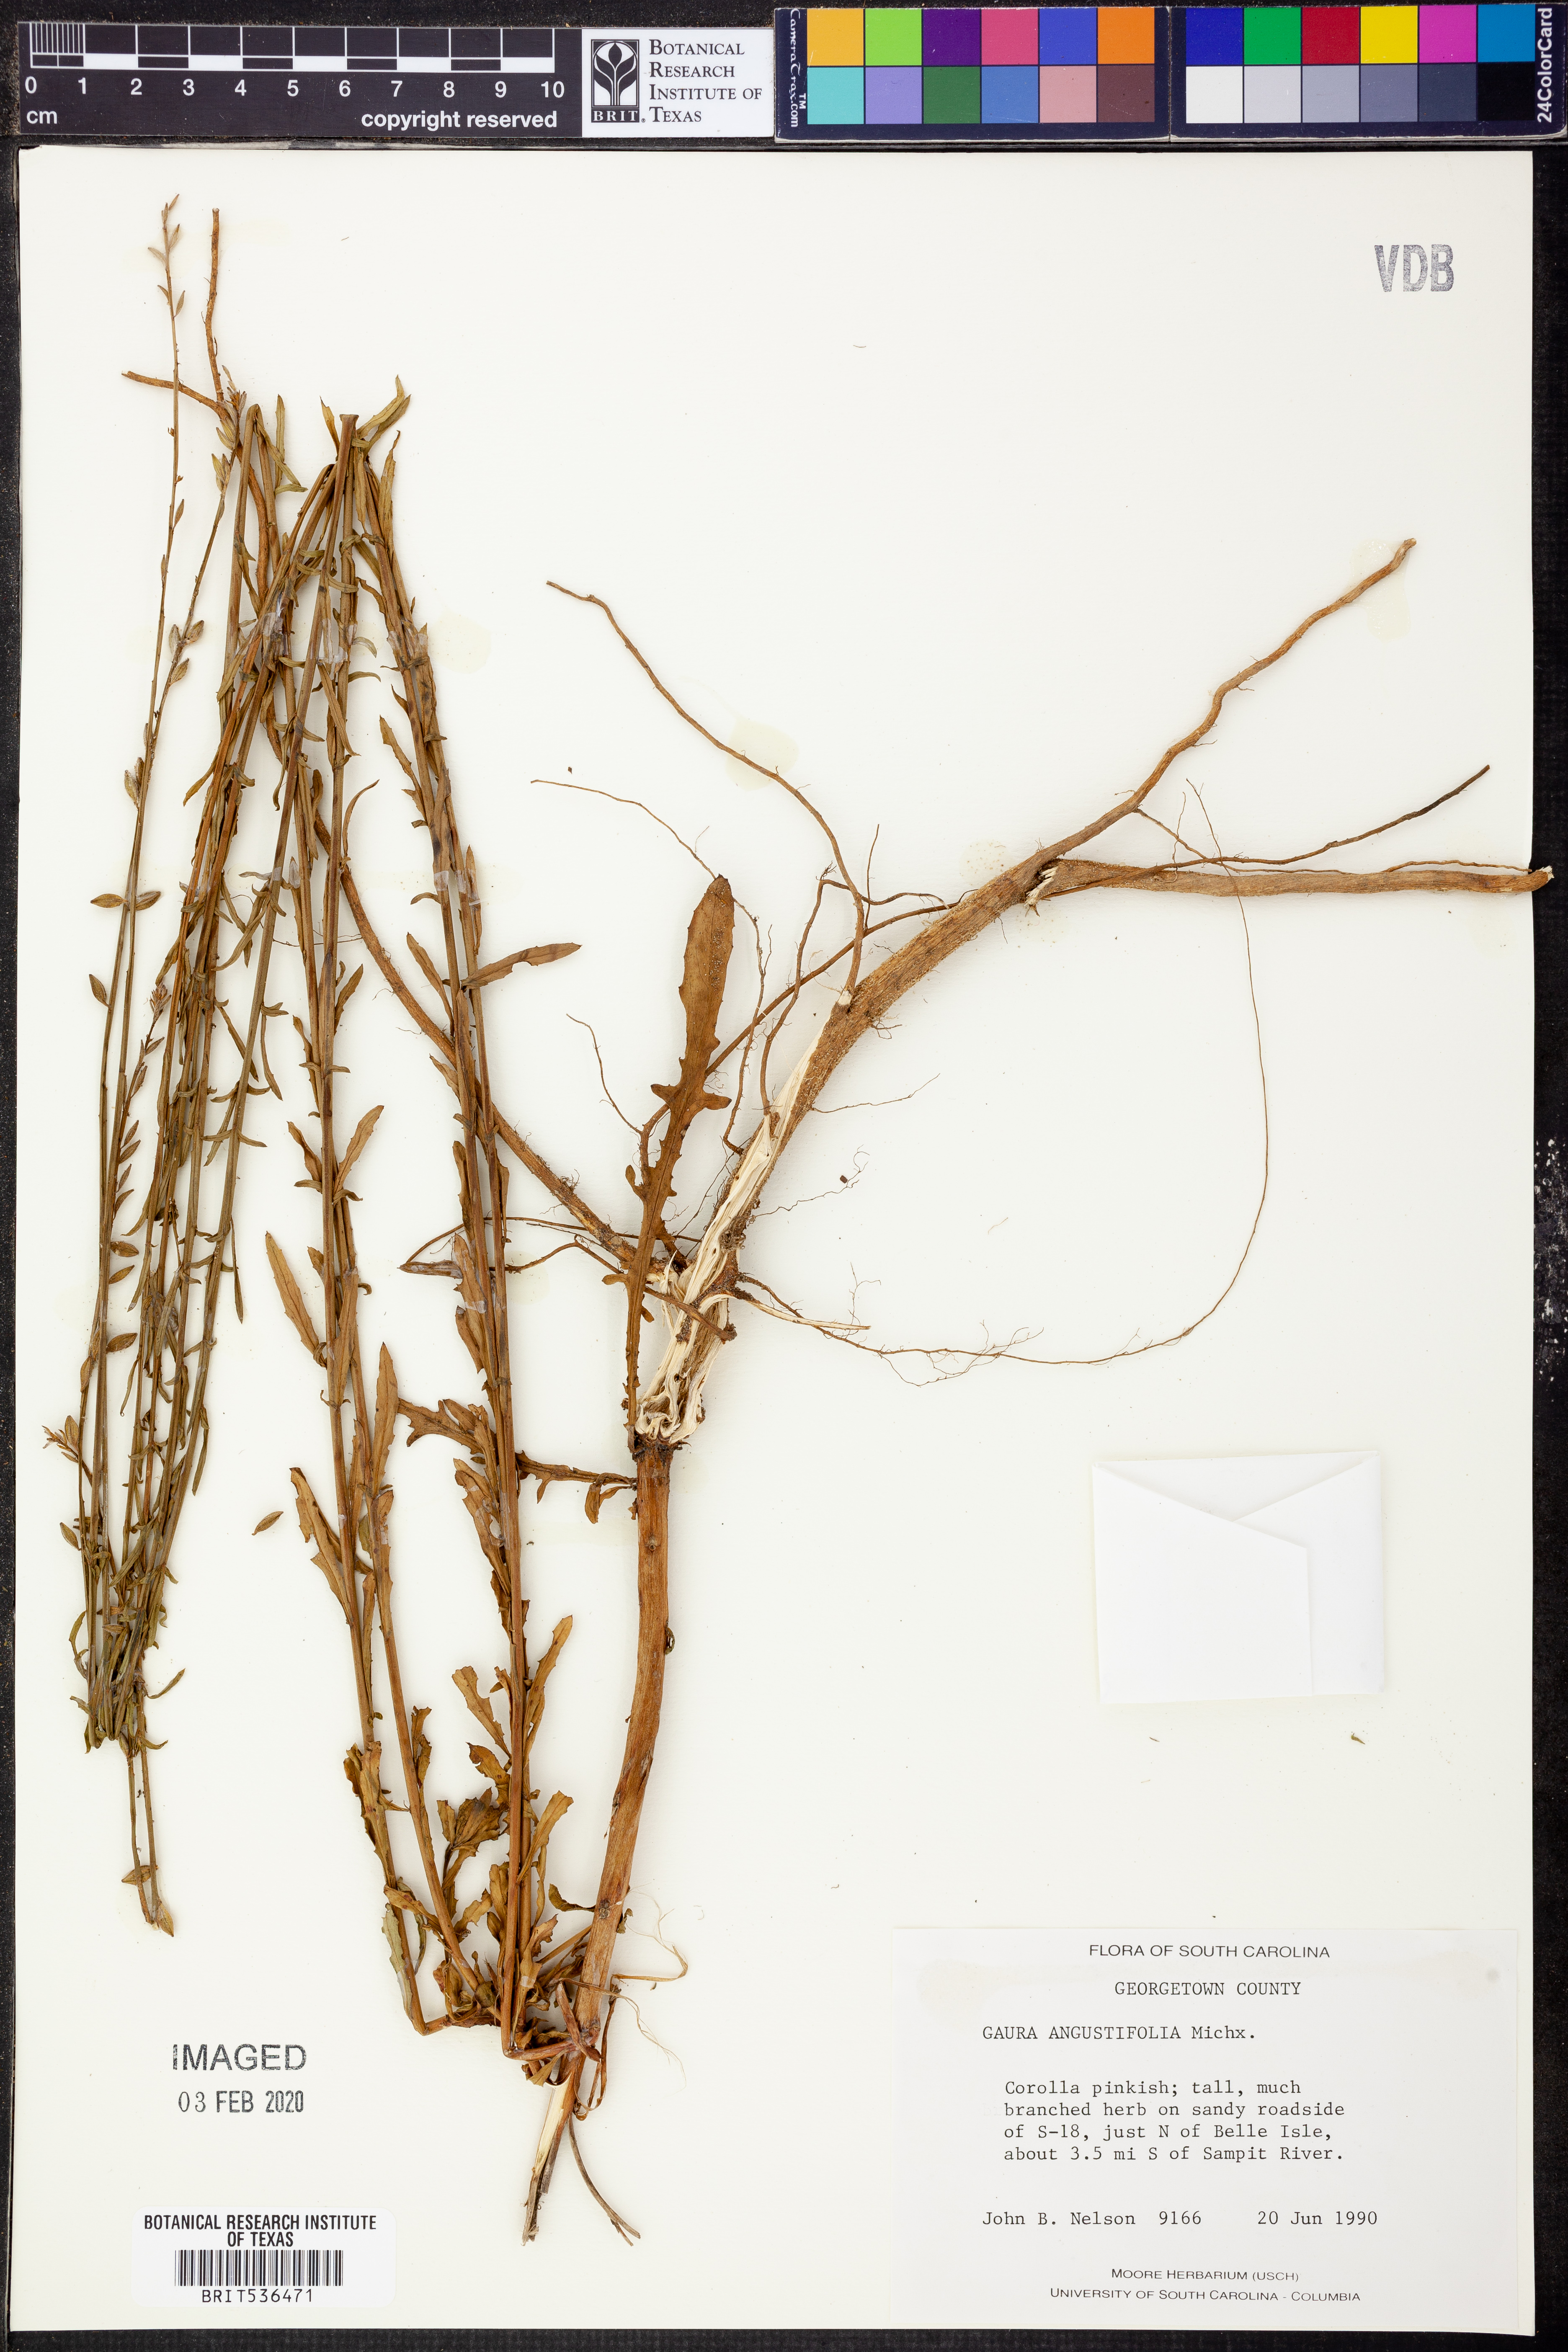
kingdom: Plantae
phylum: Tracheophyta
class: Magnoliopsida
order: Myrtales
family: Onagraceae
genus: Oenothera
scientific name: Oenothera simulans
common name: Southern beeblossom
